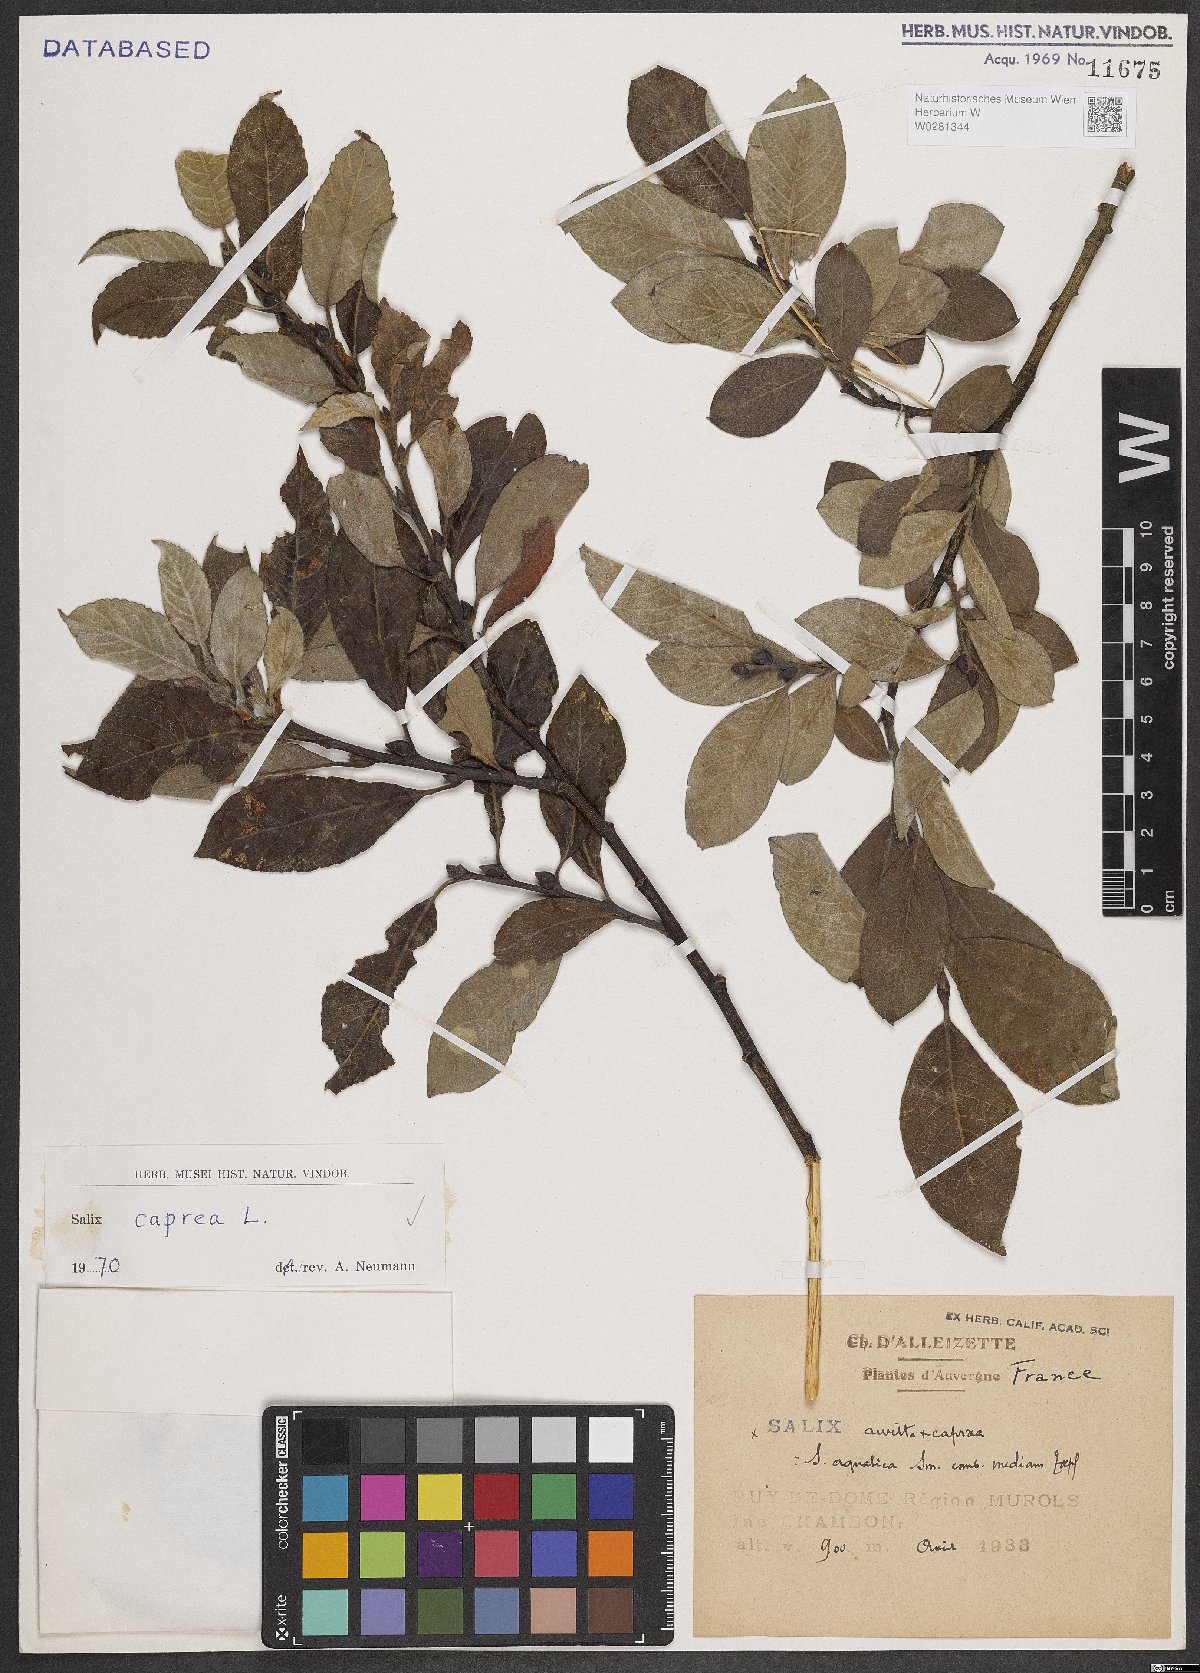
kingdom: Plantae
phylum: Tracheophyta
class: Magnoliopsida
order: Malpighiales
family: Salicaceae
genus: Salix
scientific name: Salix caprea
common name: Goat willow
